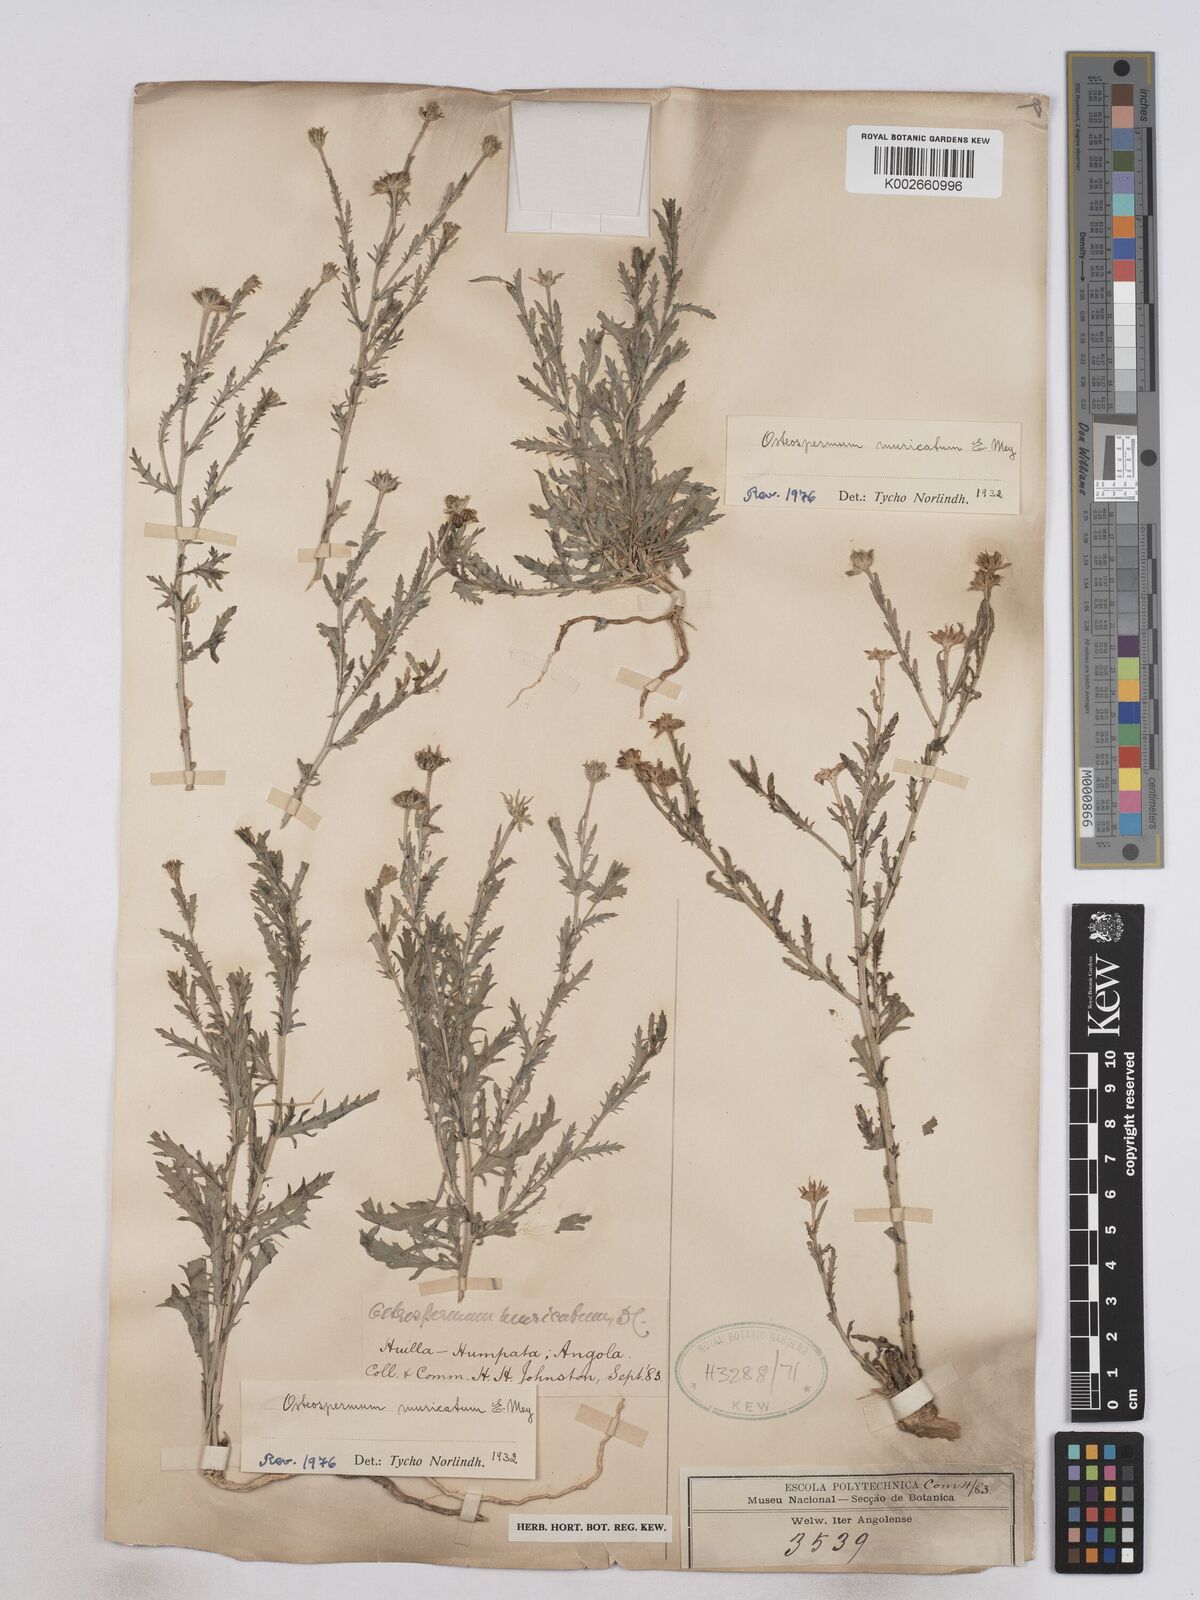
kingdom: Plantae
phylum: Tracheophyta
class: Magnoliopsida
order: Asterales
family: Asteraceae
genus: Osteospermum
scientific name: Osteospermum muricatum
